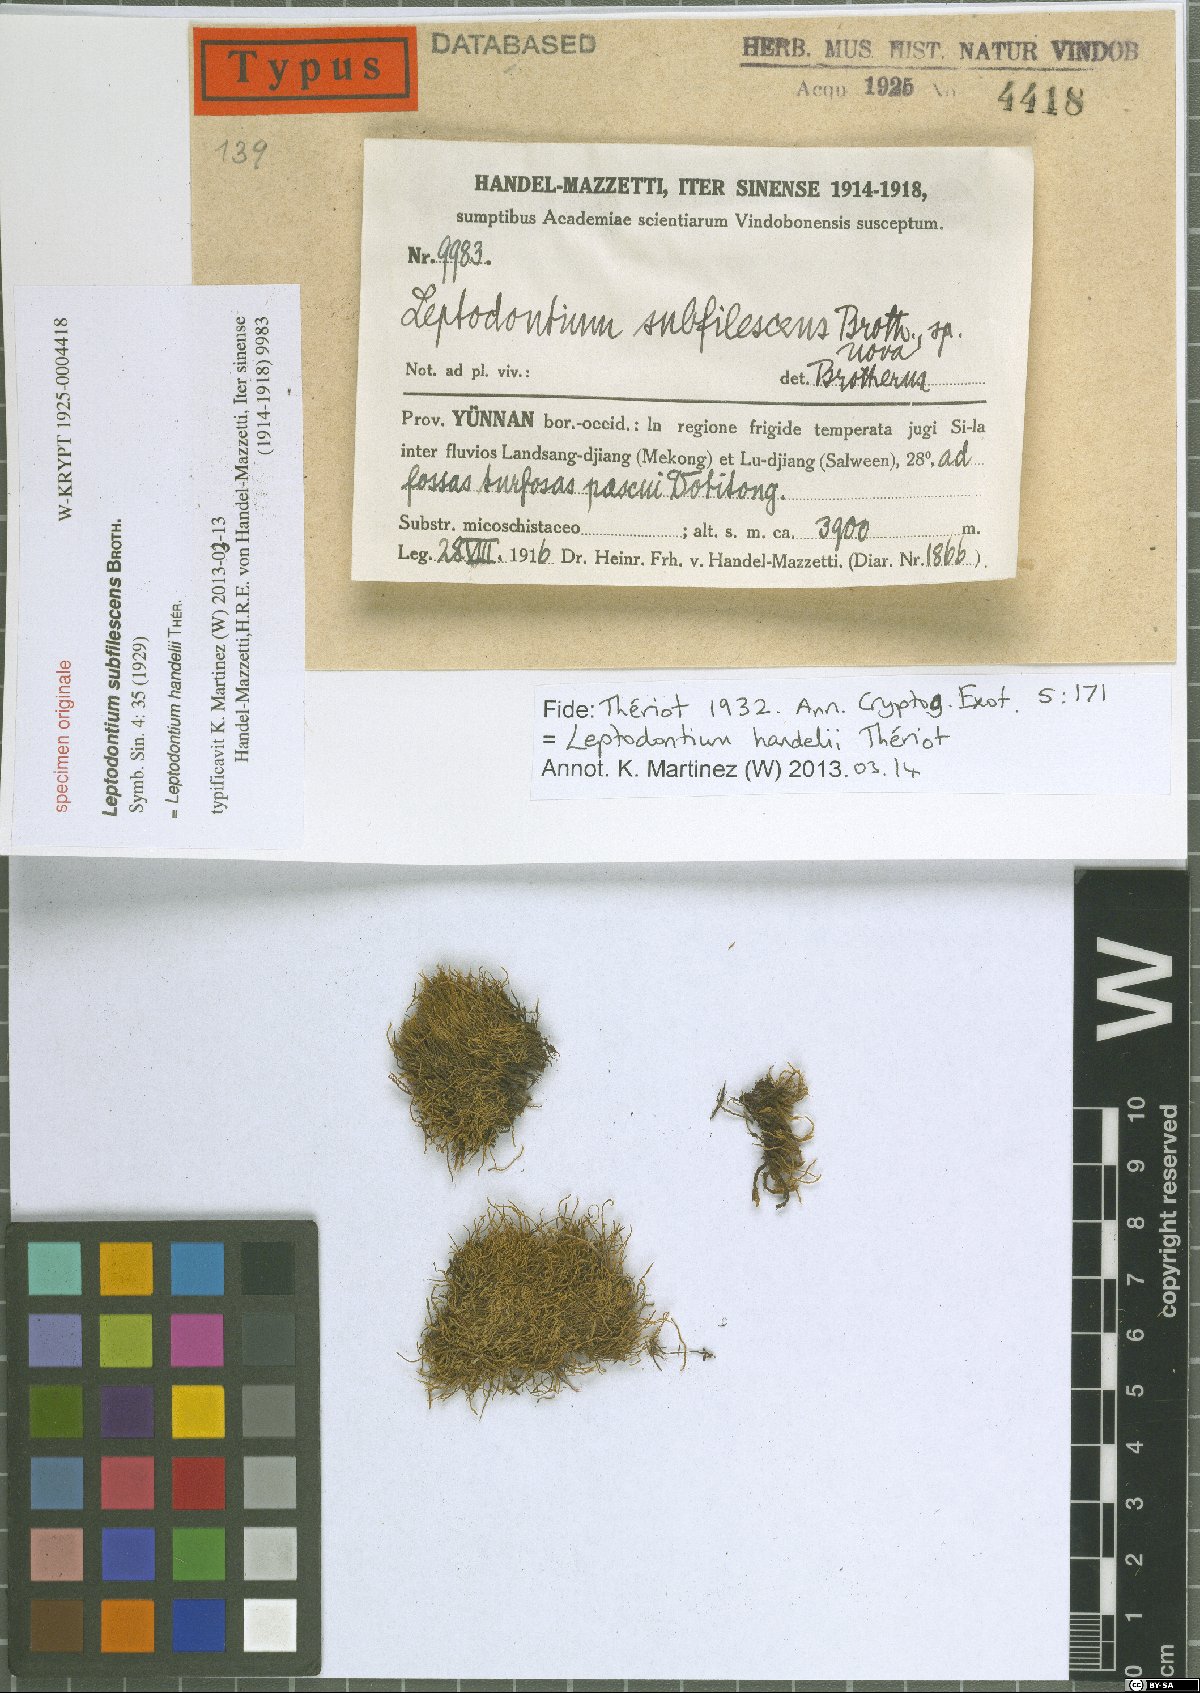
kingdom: Plantae
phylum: Bryophyta
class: Bryopsida
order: Pottiales
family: Pottiaceae
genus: Leptodontium
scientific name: Leptodontium flexifolium
